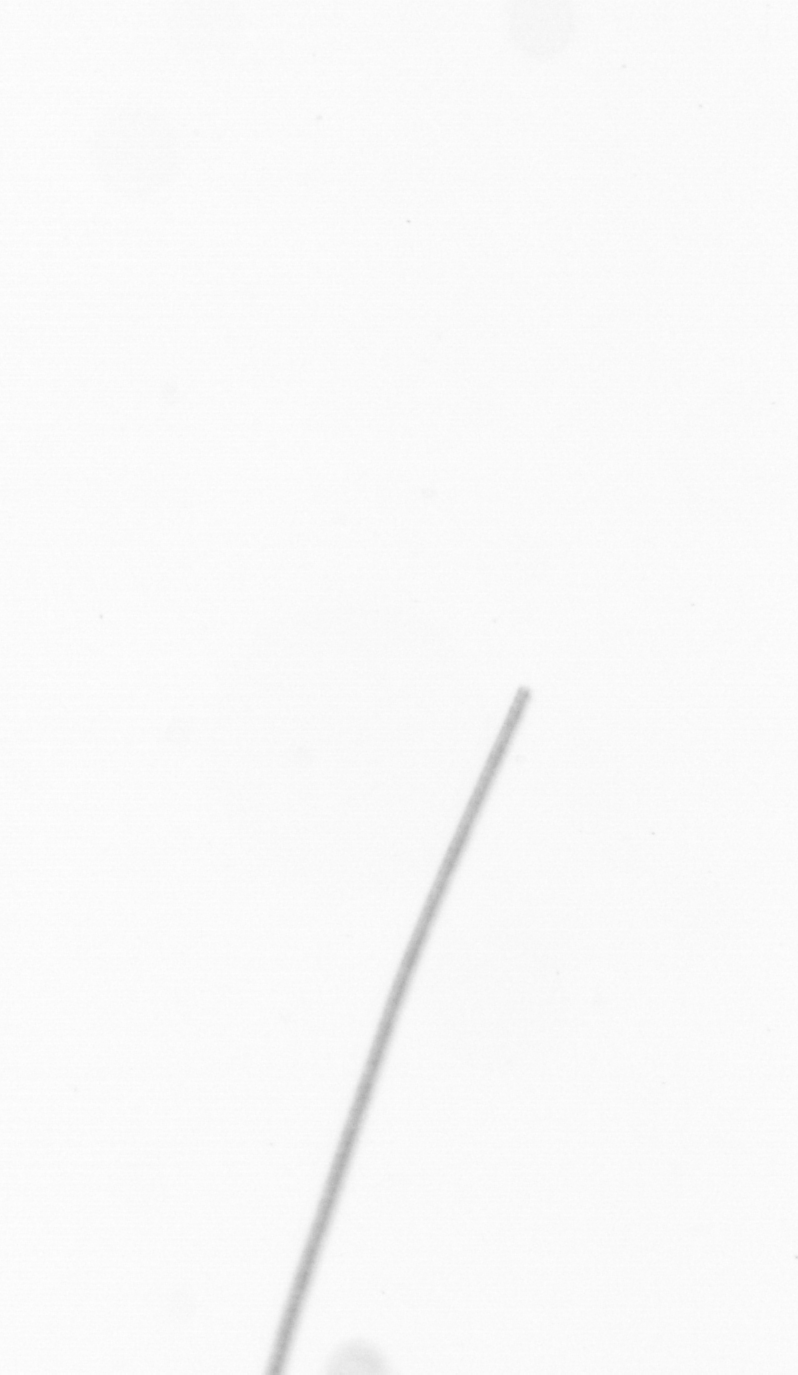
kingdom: Chromista
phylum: Ochrophyta
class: Bacillariophyceae
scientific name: Bacillariophyceae
